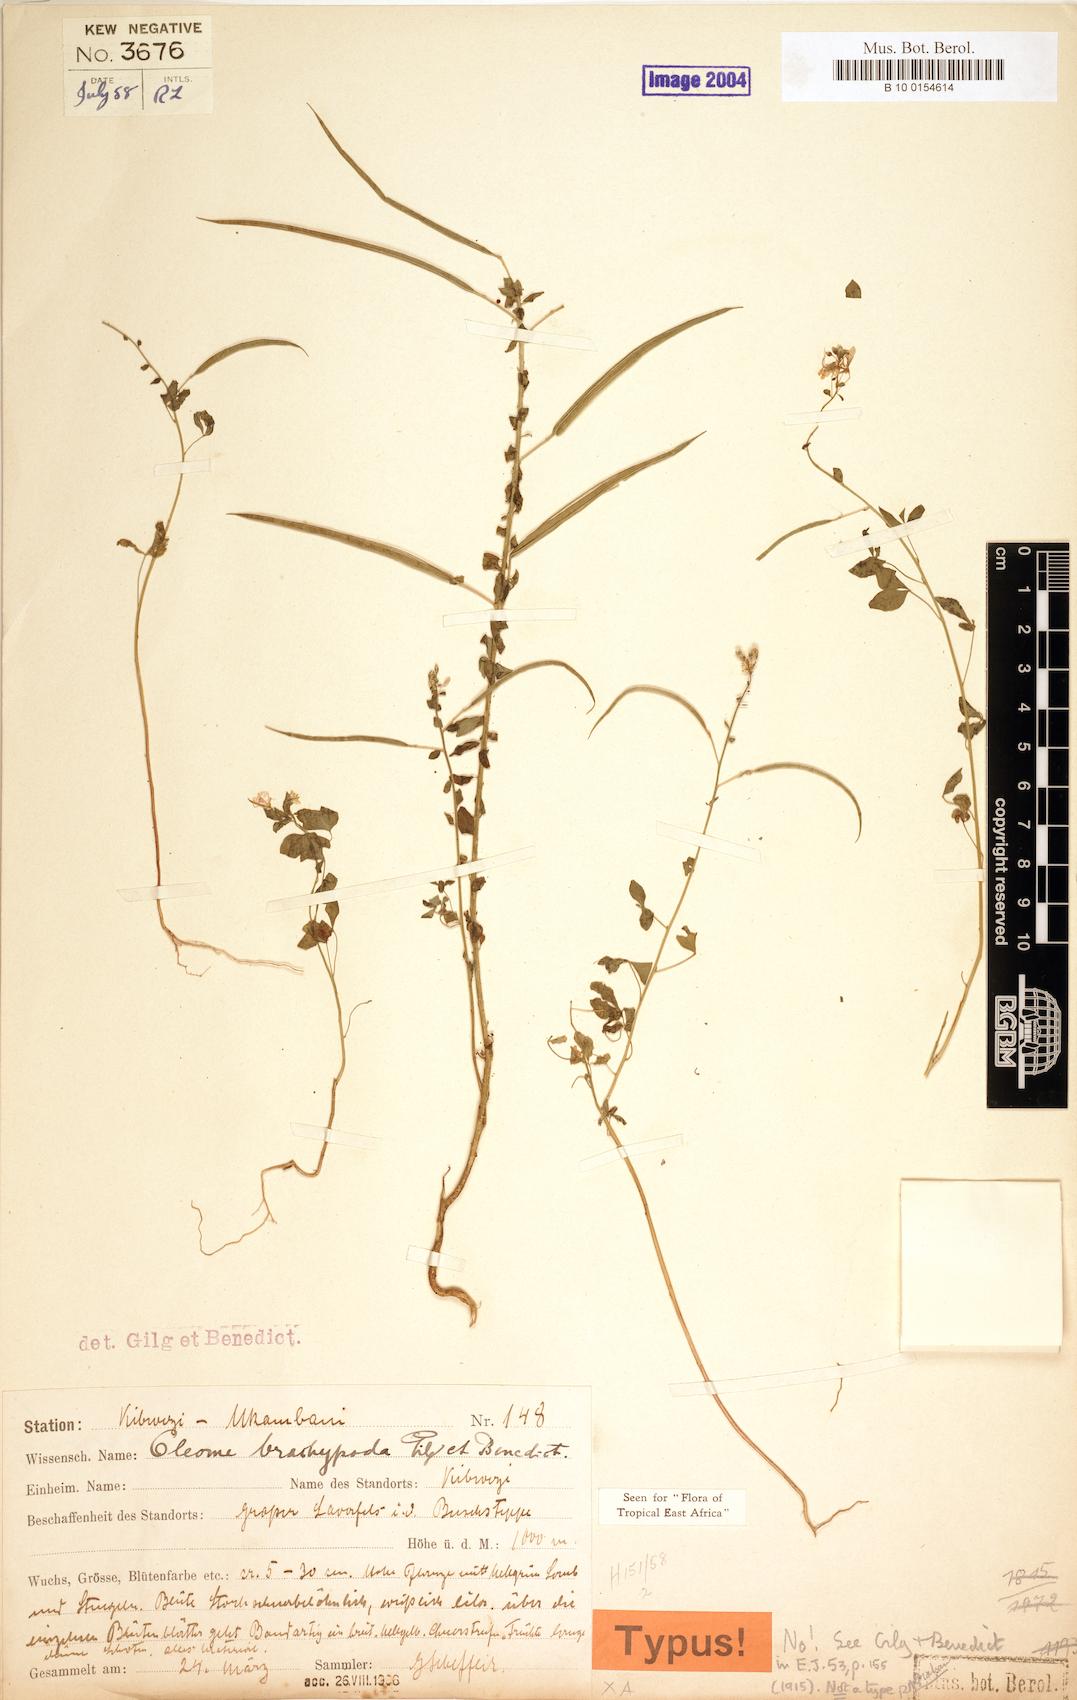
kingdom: Plantae
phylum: Tracheophyta
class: Magnoliopsida
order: Brassicales
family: Cleomaceae
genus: Sieruela
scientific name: Sieruela briquetii
